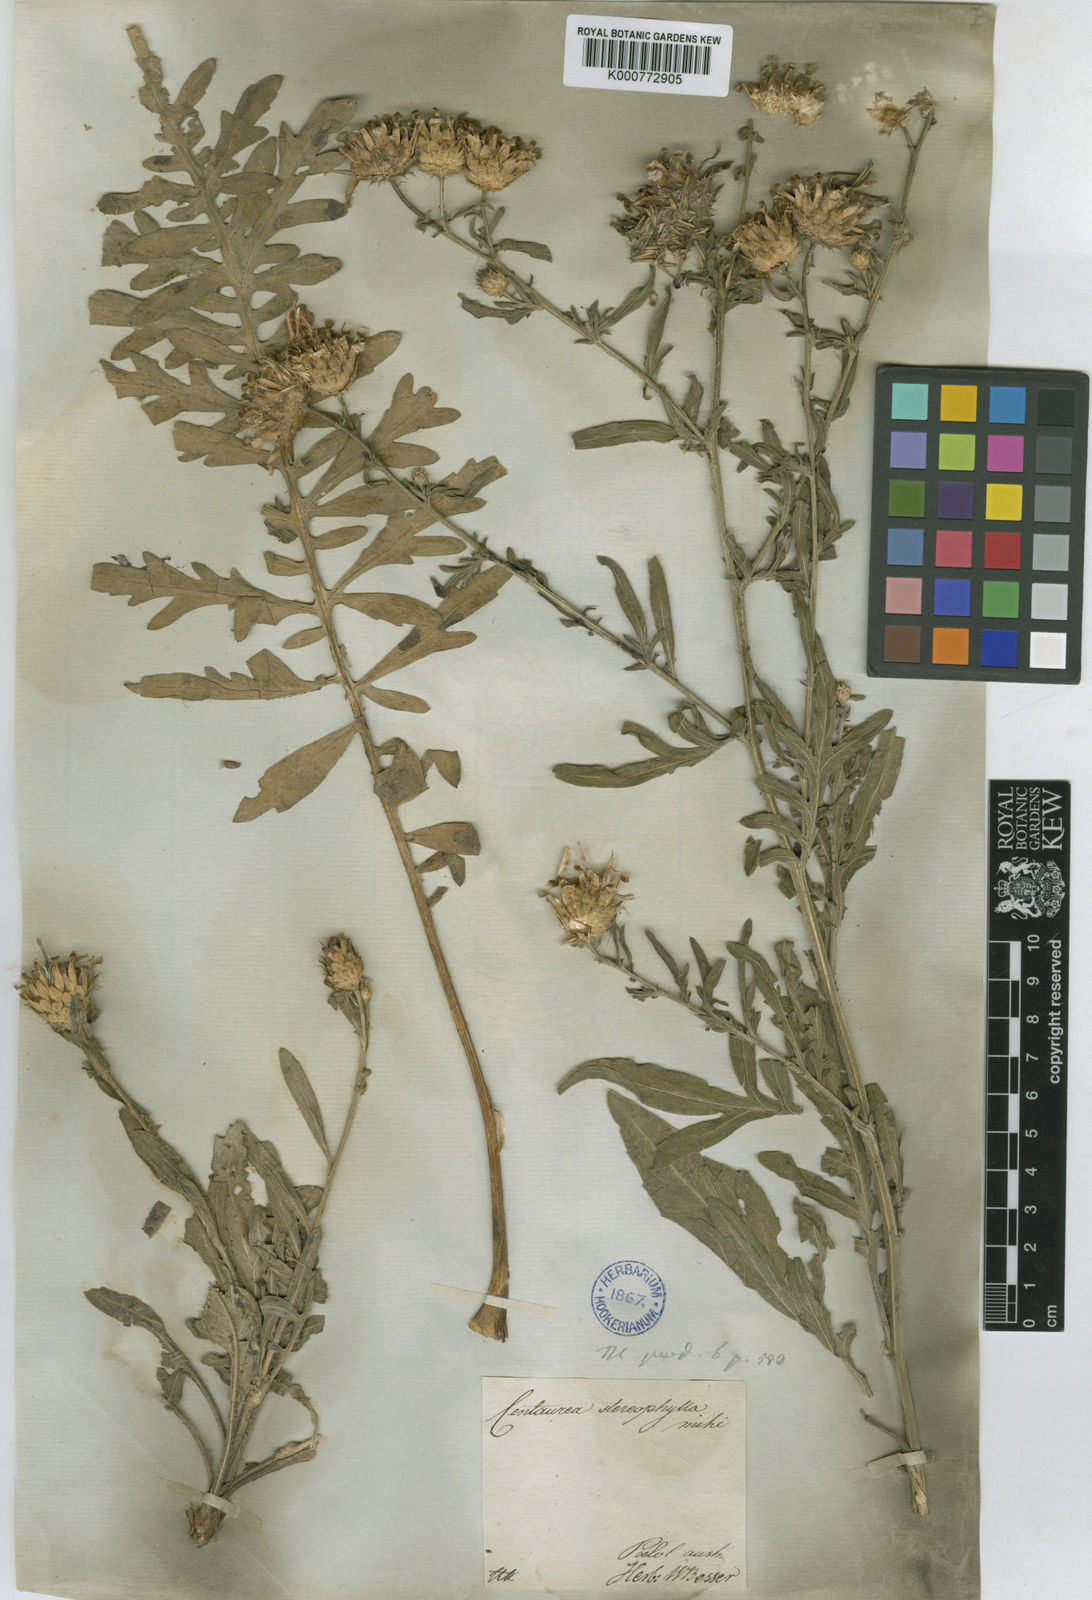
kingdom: Plantae
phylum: Tracheophyta
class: Magnoliopsida
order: Asterales
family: Asteraceae
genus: Centaurea
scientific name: Centaurea stereophylla
